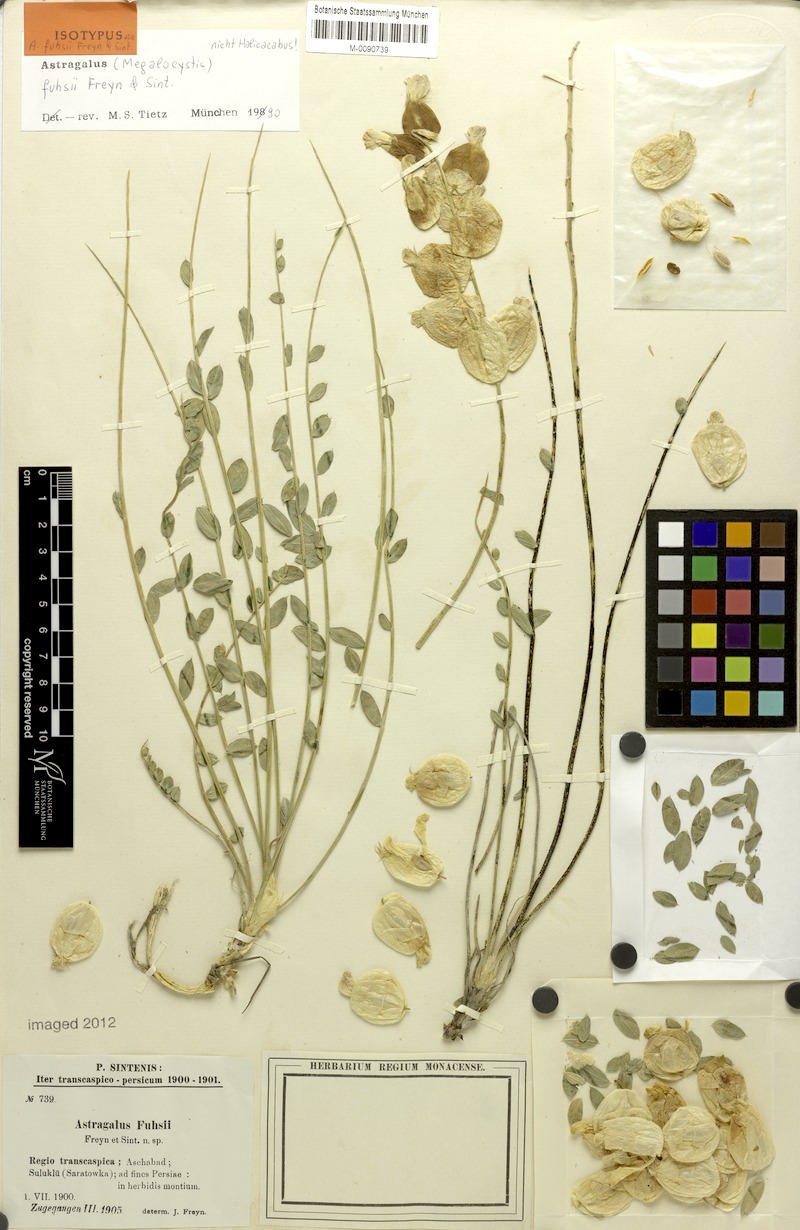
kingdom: Plantae
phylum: Tracheophyta
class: Magnoliopsida
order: Fabales
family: Fabaceae
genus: Astragalus
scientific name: Astragalus fuhsii
